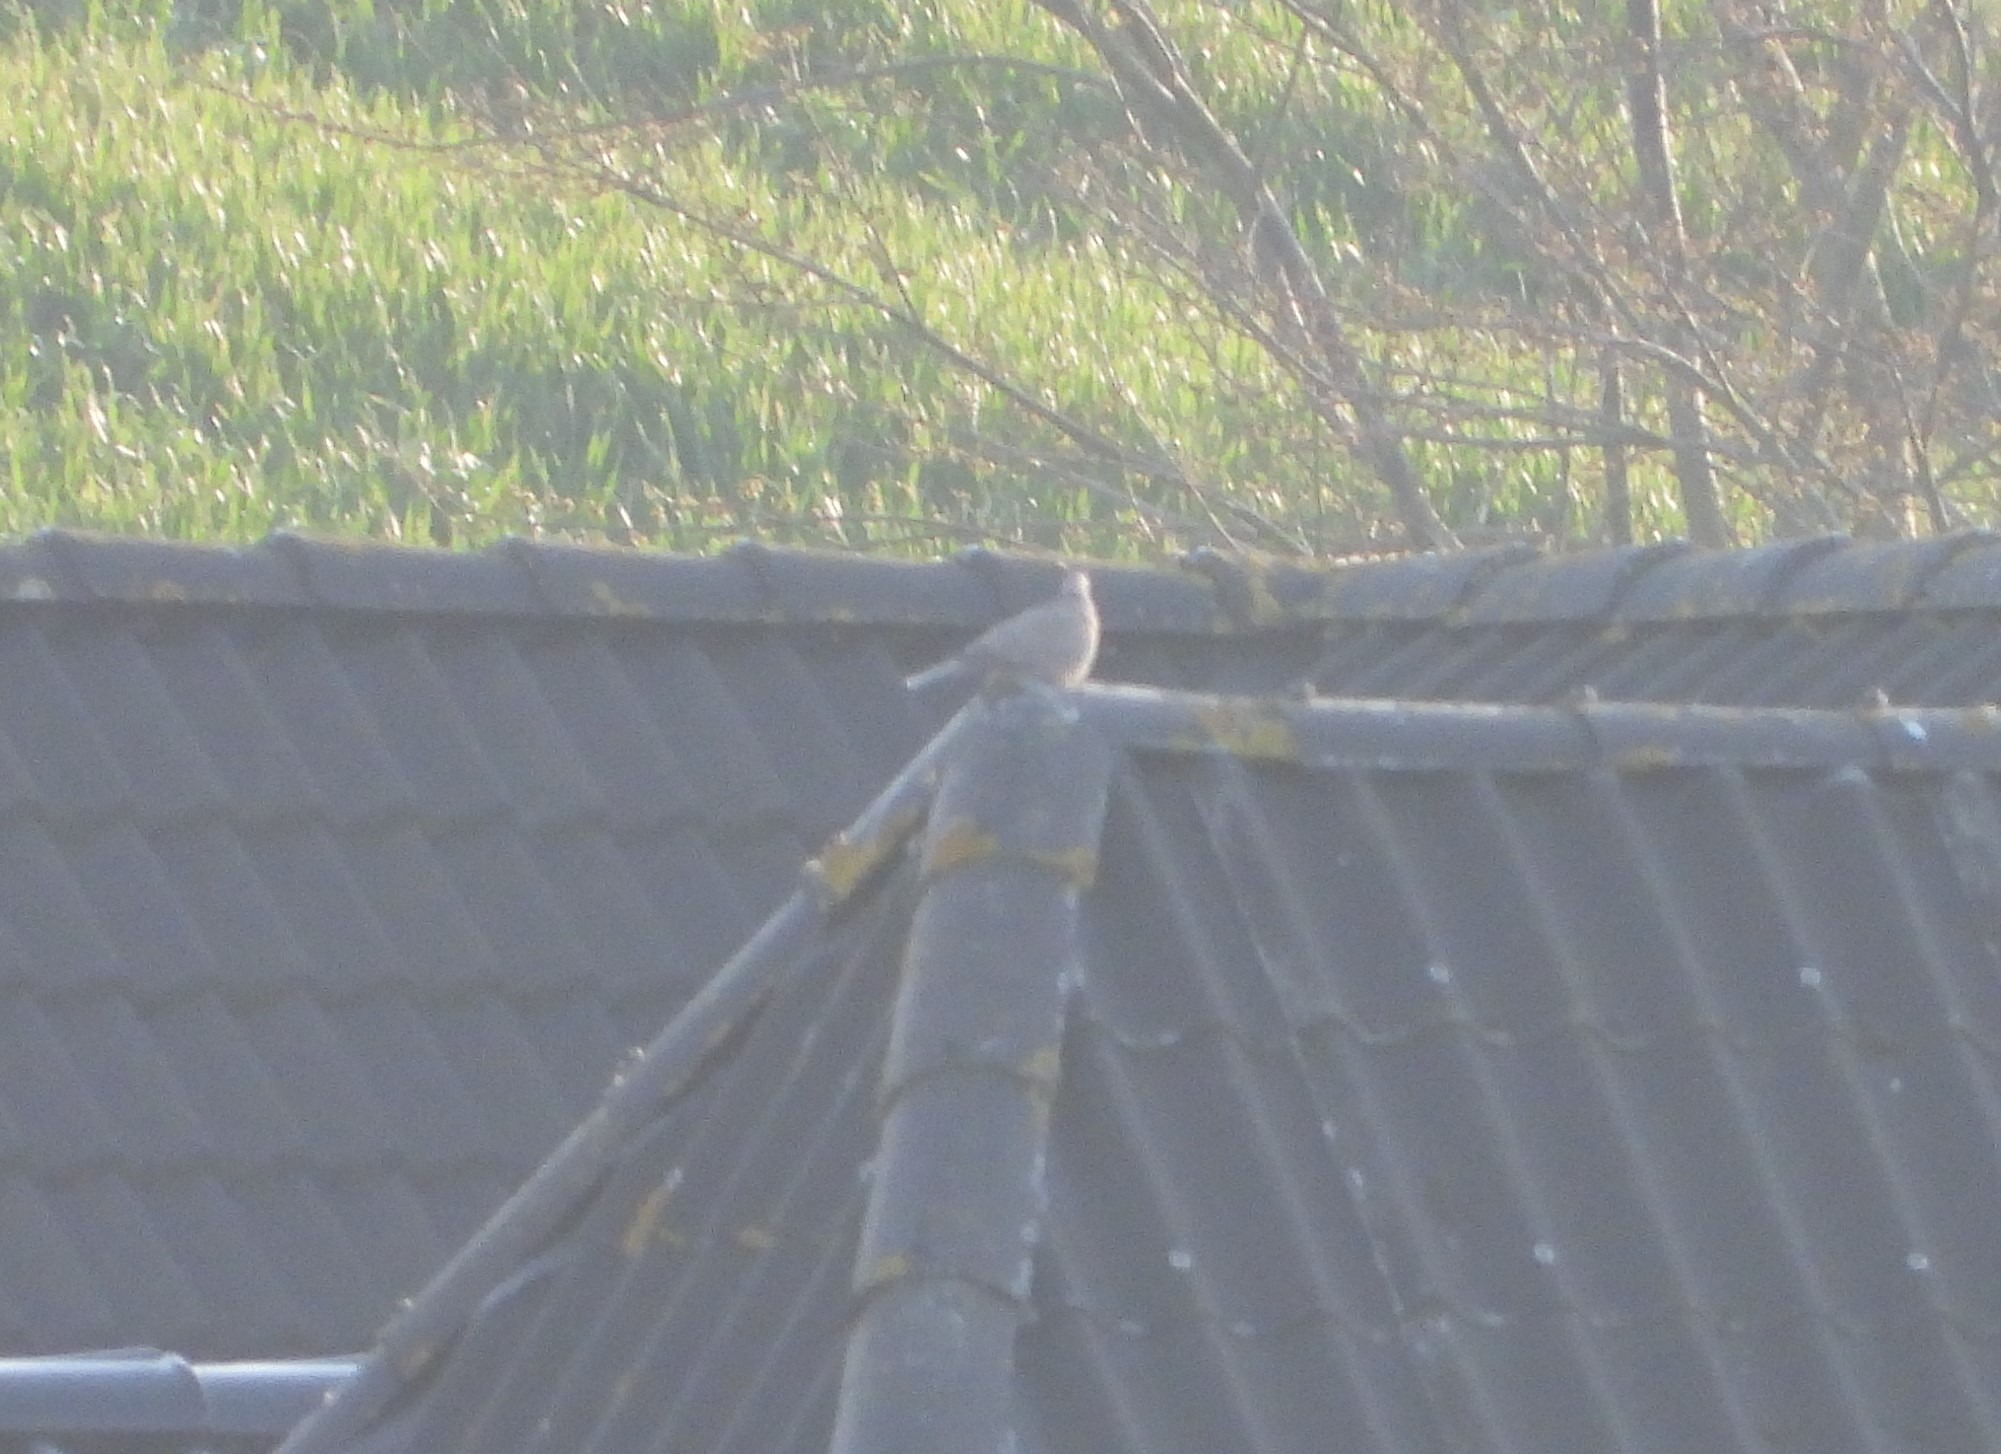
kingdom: Animalia
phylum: Chordata
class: Aves
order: Columbiformes
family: Columbidae
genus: Streptopelia
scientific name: Streptopelia decaocto
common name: Tyrkerdue
